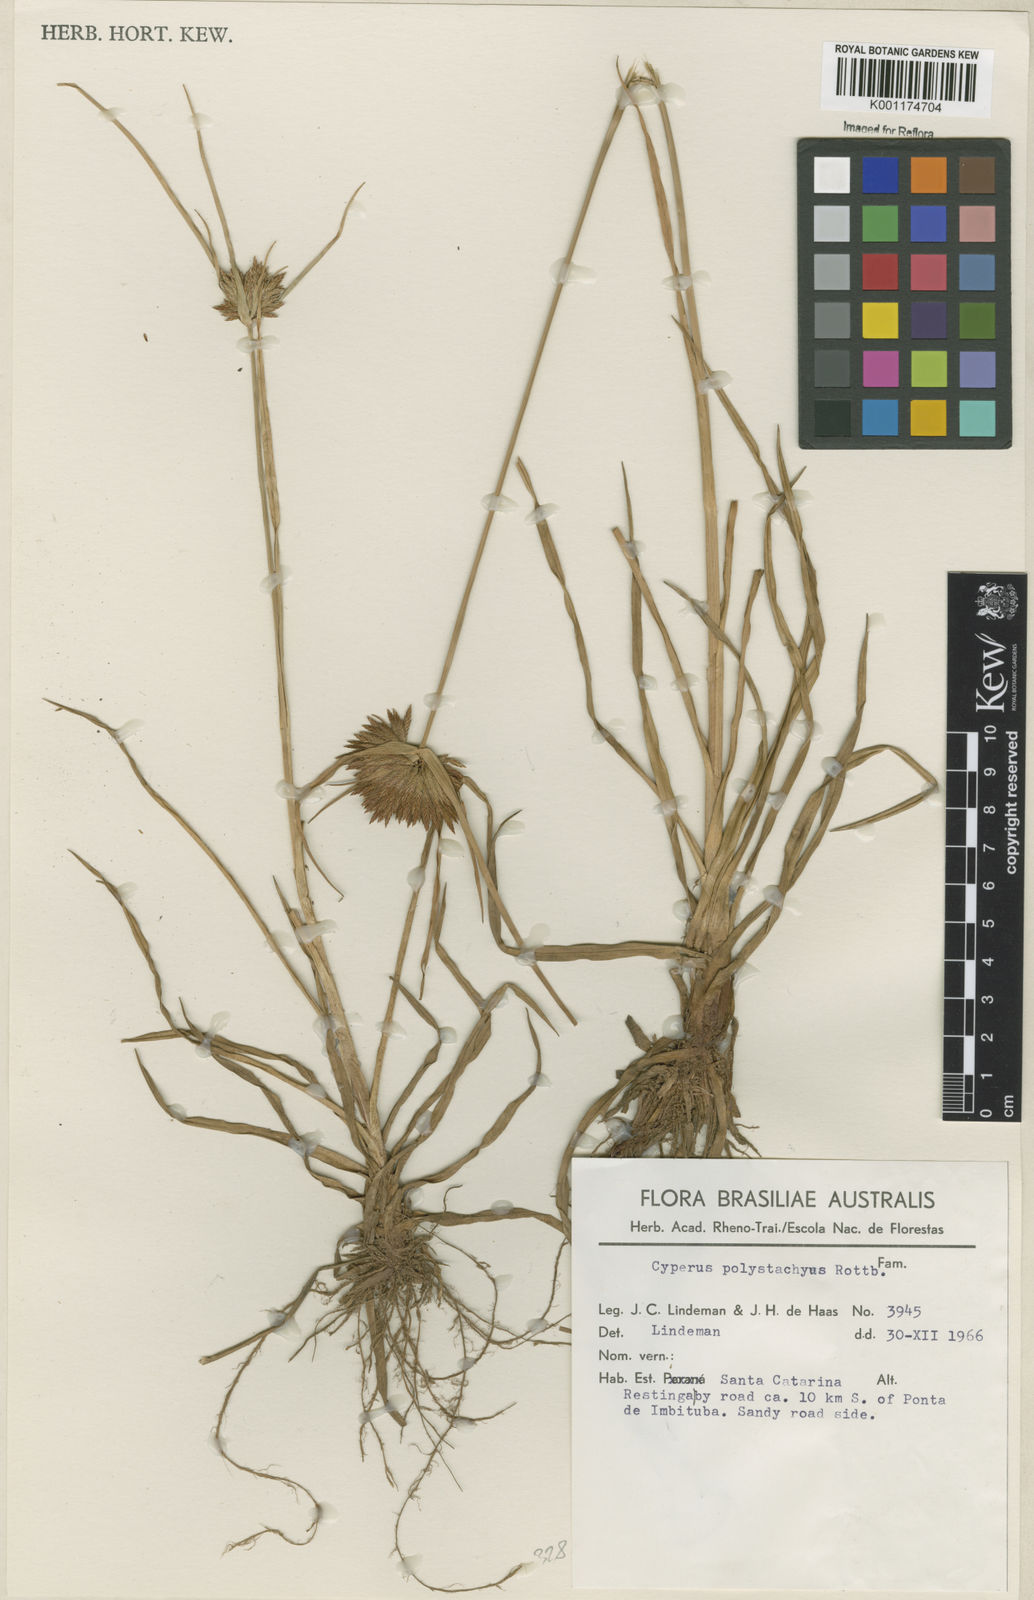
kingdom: Plantae
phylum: Tracheophyta
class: Liliopsida
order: Poales
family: Cyperaceae
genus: Cyperus
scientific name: Cyperus polystachyos
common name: Bunchy flat sedge
